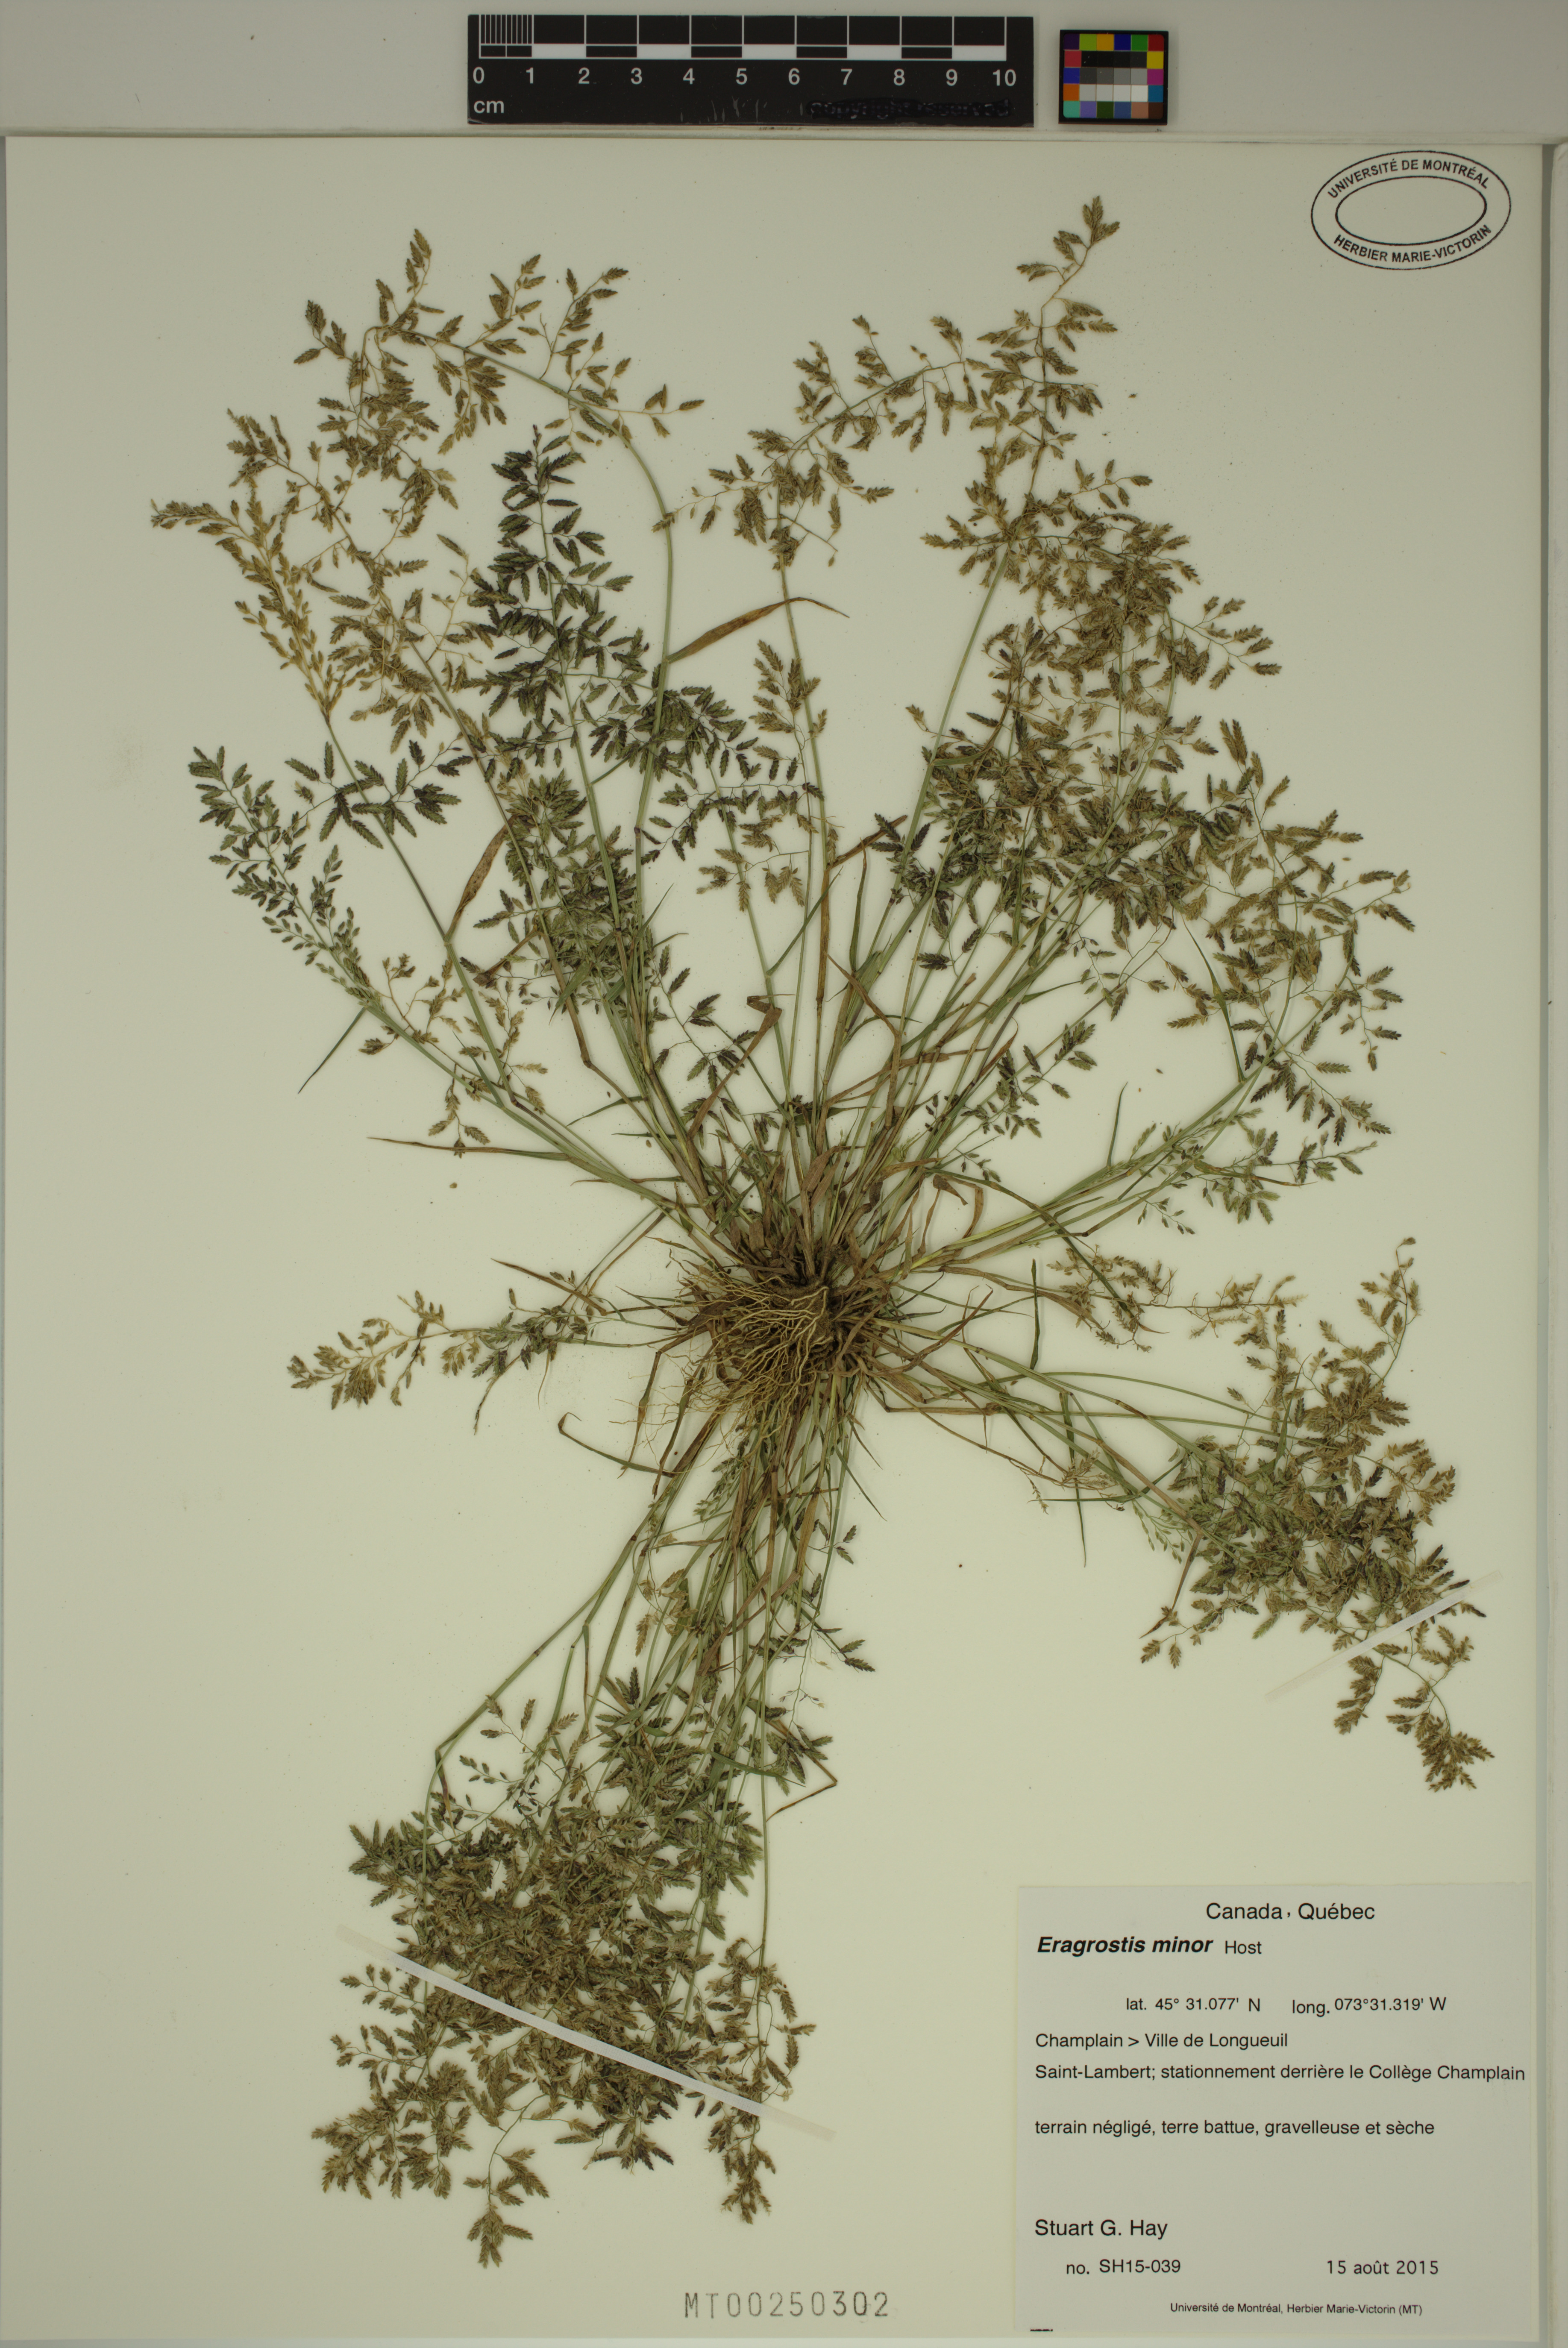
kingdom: Plantae
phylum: Tracheophyta
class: Liliopsida
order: Poales
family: Poaceae
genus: Eragrostis
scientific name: Eragrostis minor
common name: Small love-grass
